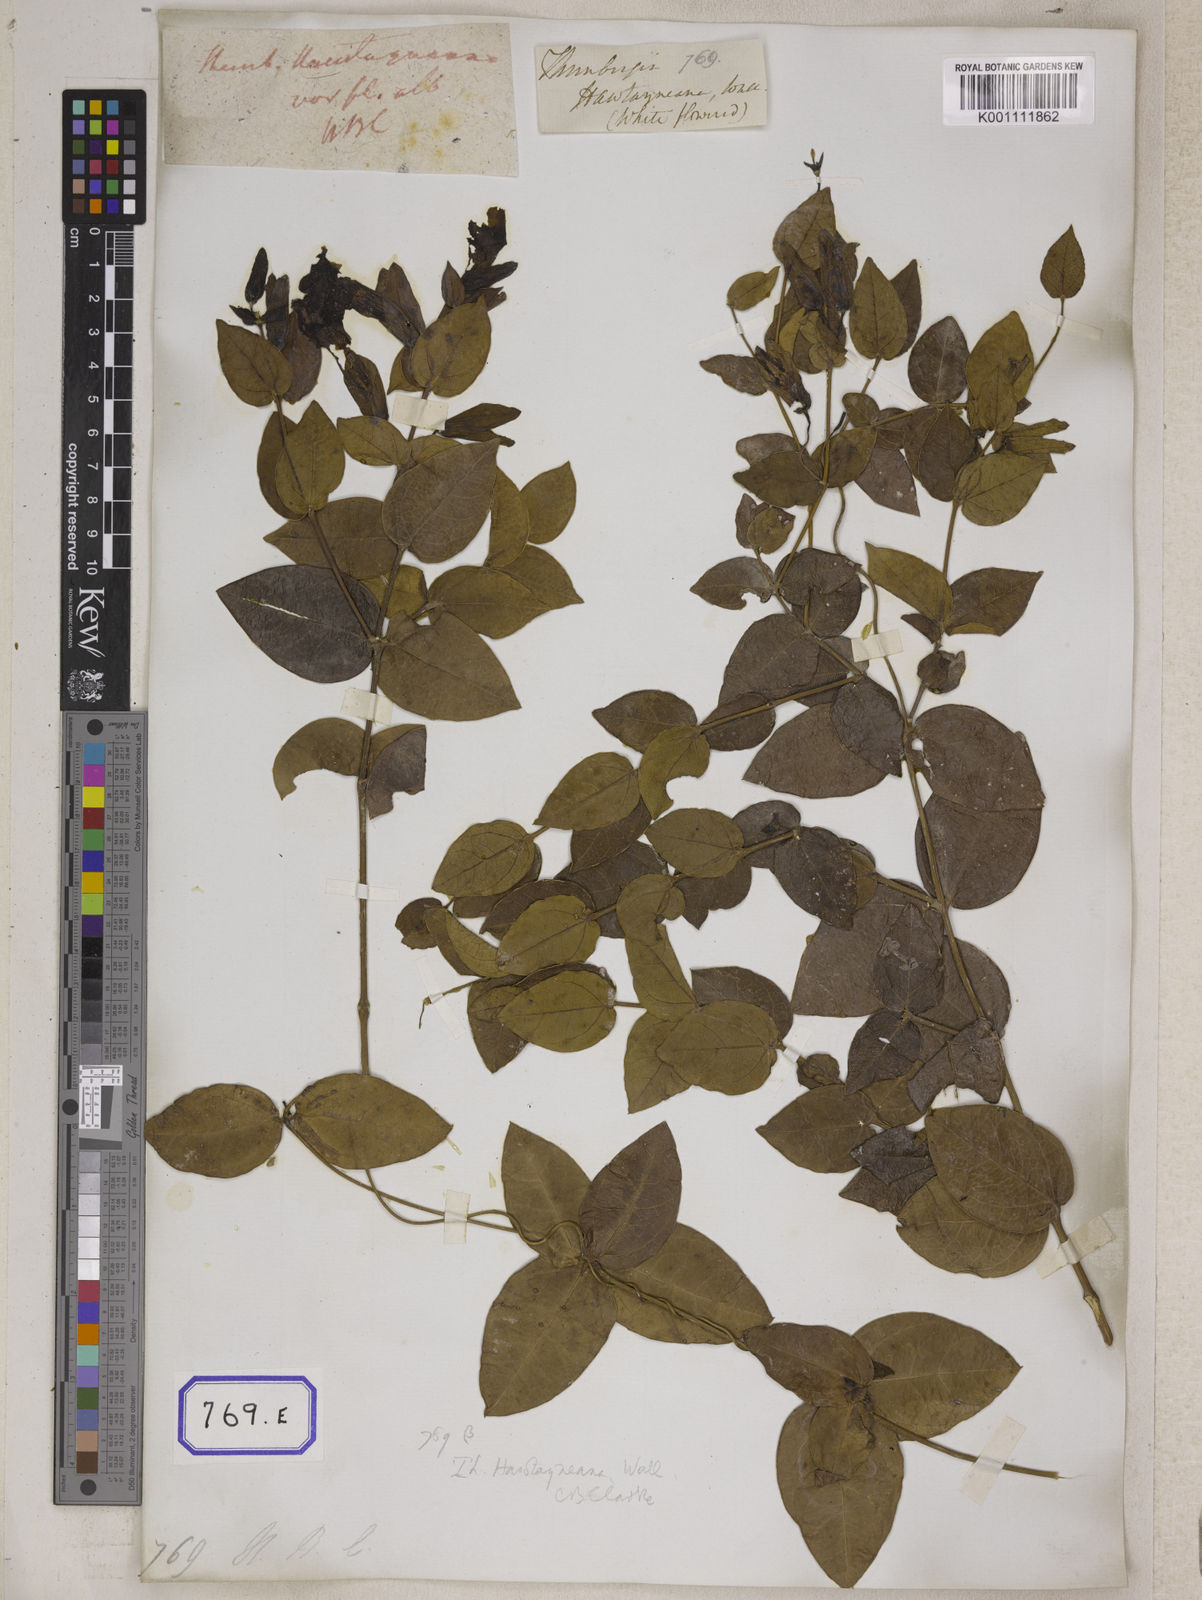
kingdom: Plantae
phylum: Tracheophyta
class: Magnoliopsida
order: Lamiales
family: Acanthaceae
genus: Meyenia
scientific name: Meyenia hawtayneana
